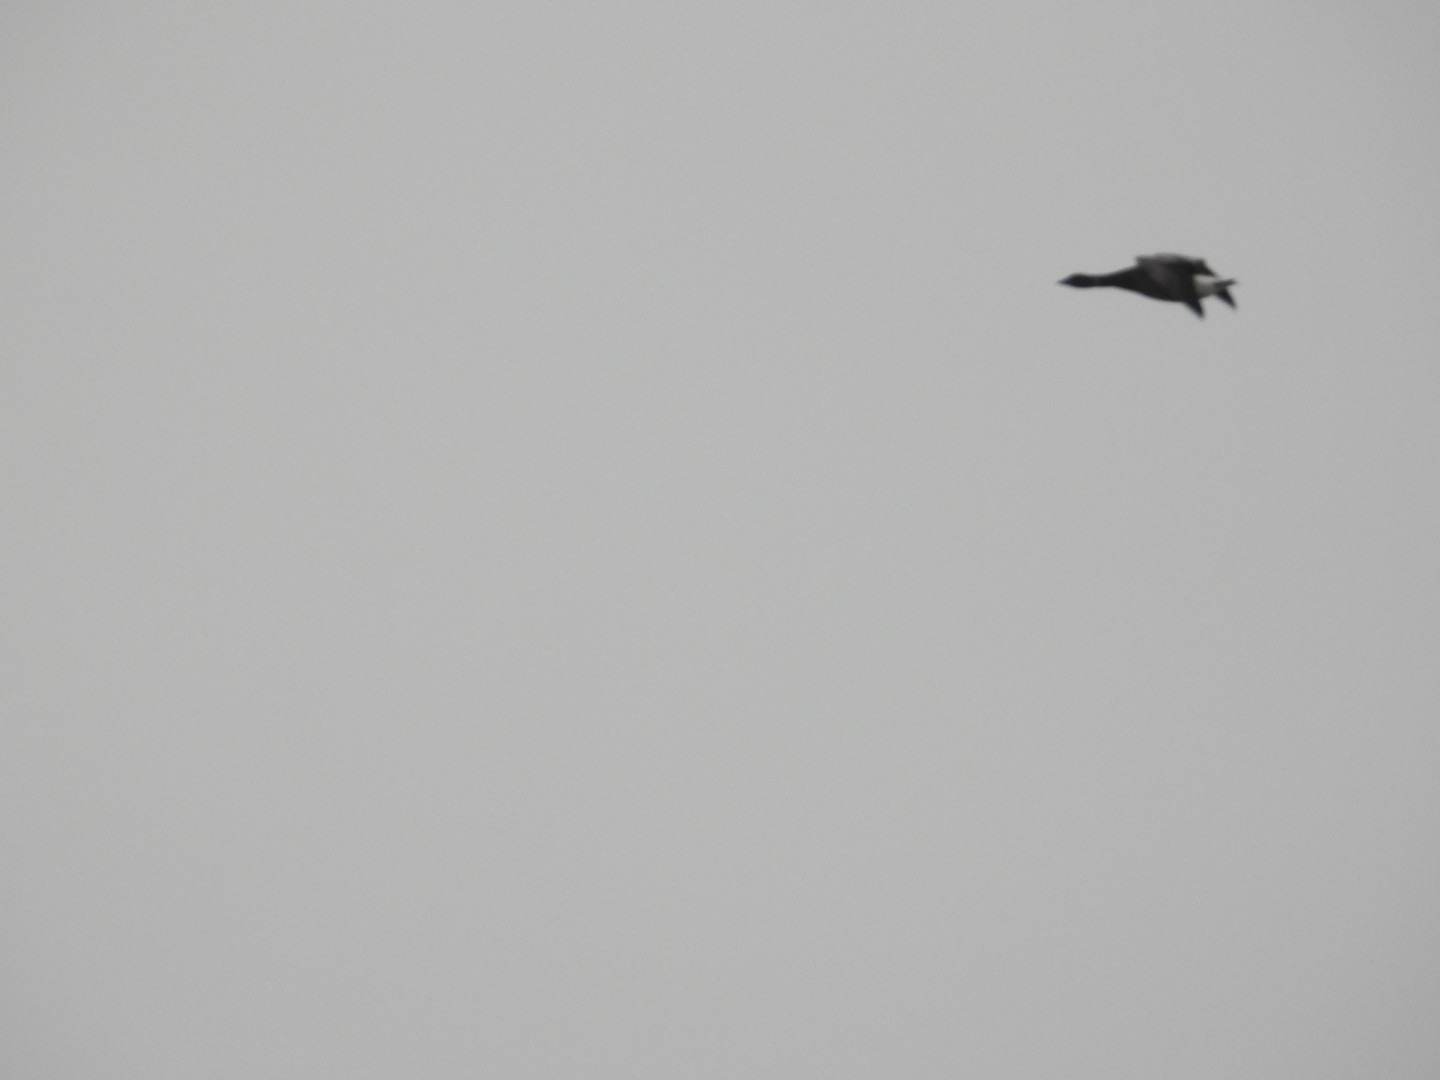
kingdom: Animalia
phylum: Chordata
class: Aves
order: Anseriformes
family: Anatidae
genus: Branta
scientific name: Branta bernicla
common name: Knortegås
